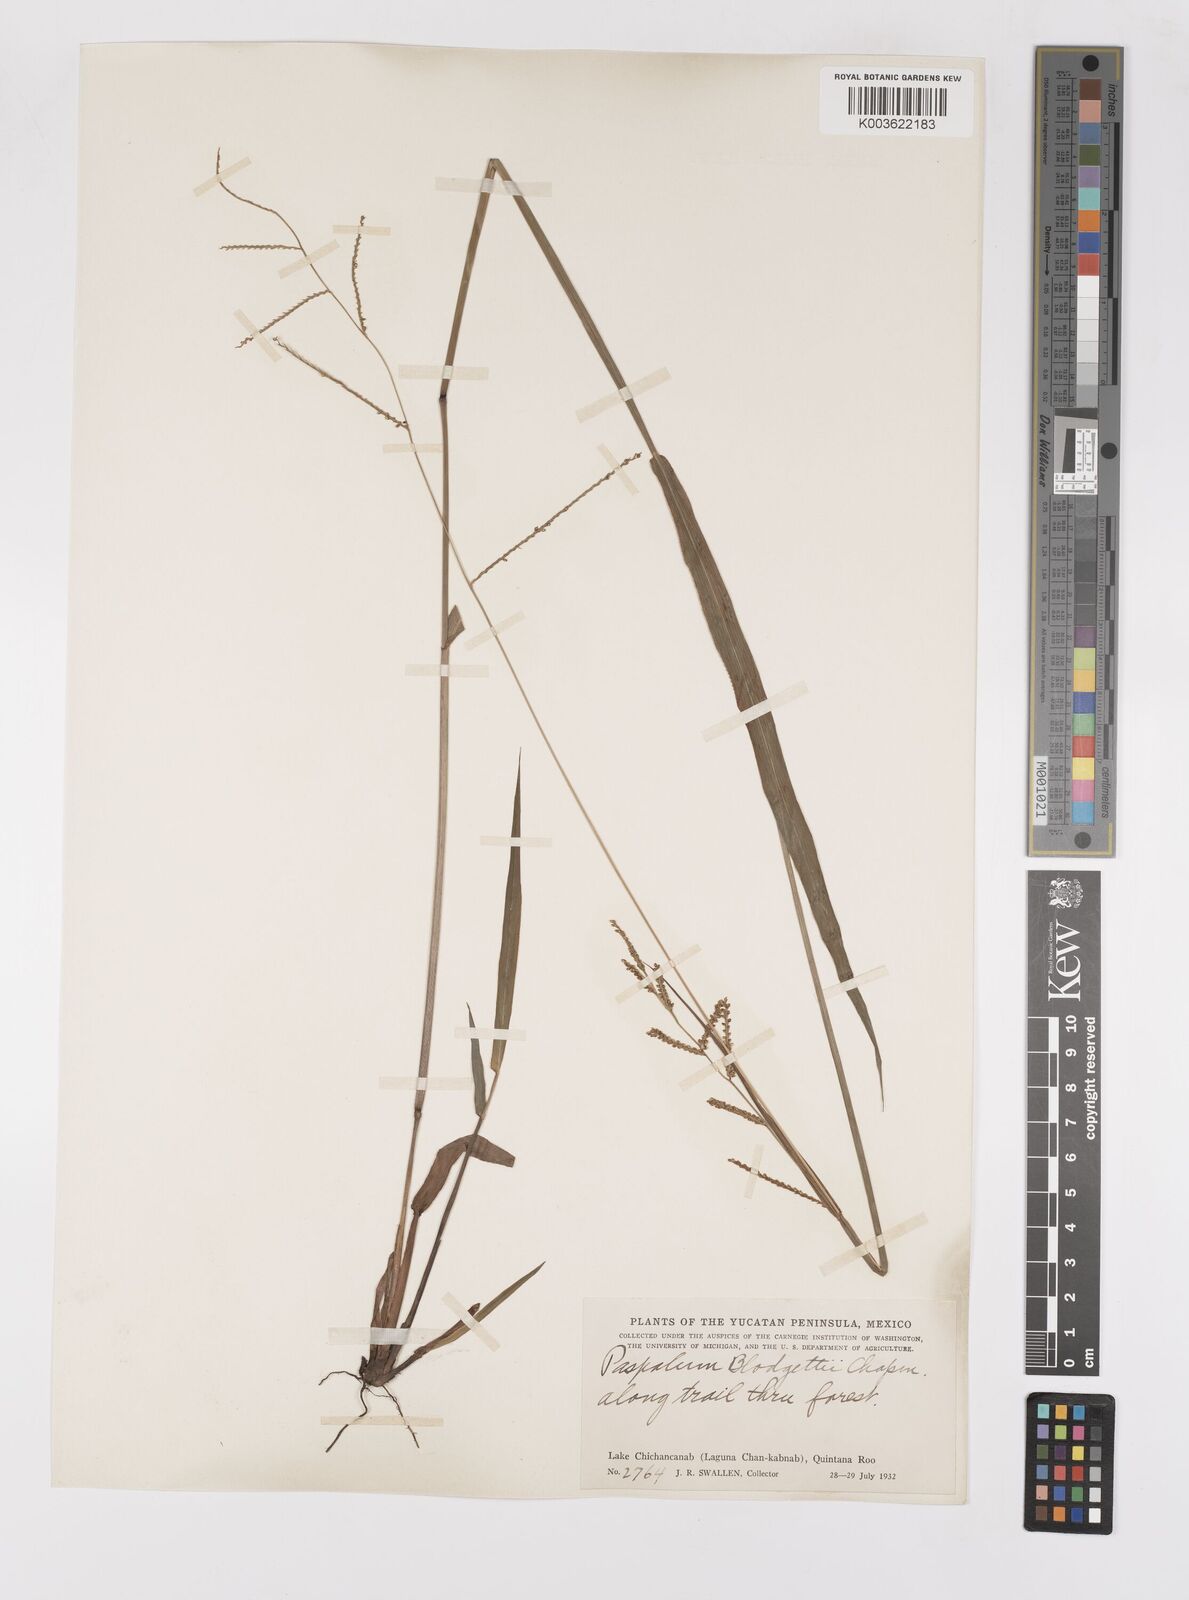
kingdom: Plantae
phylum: Tracheophyta
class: Liliopsida
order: Poales
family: Poaceae
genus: Paspalum
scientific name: Paspalum blodgettii
